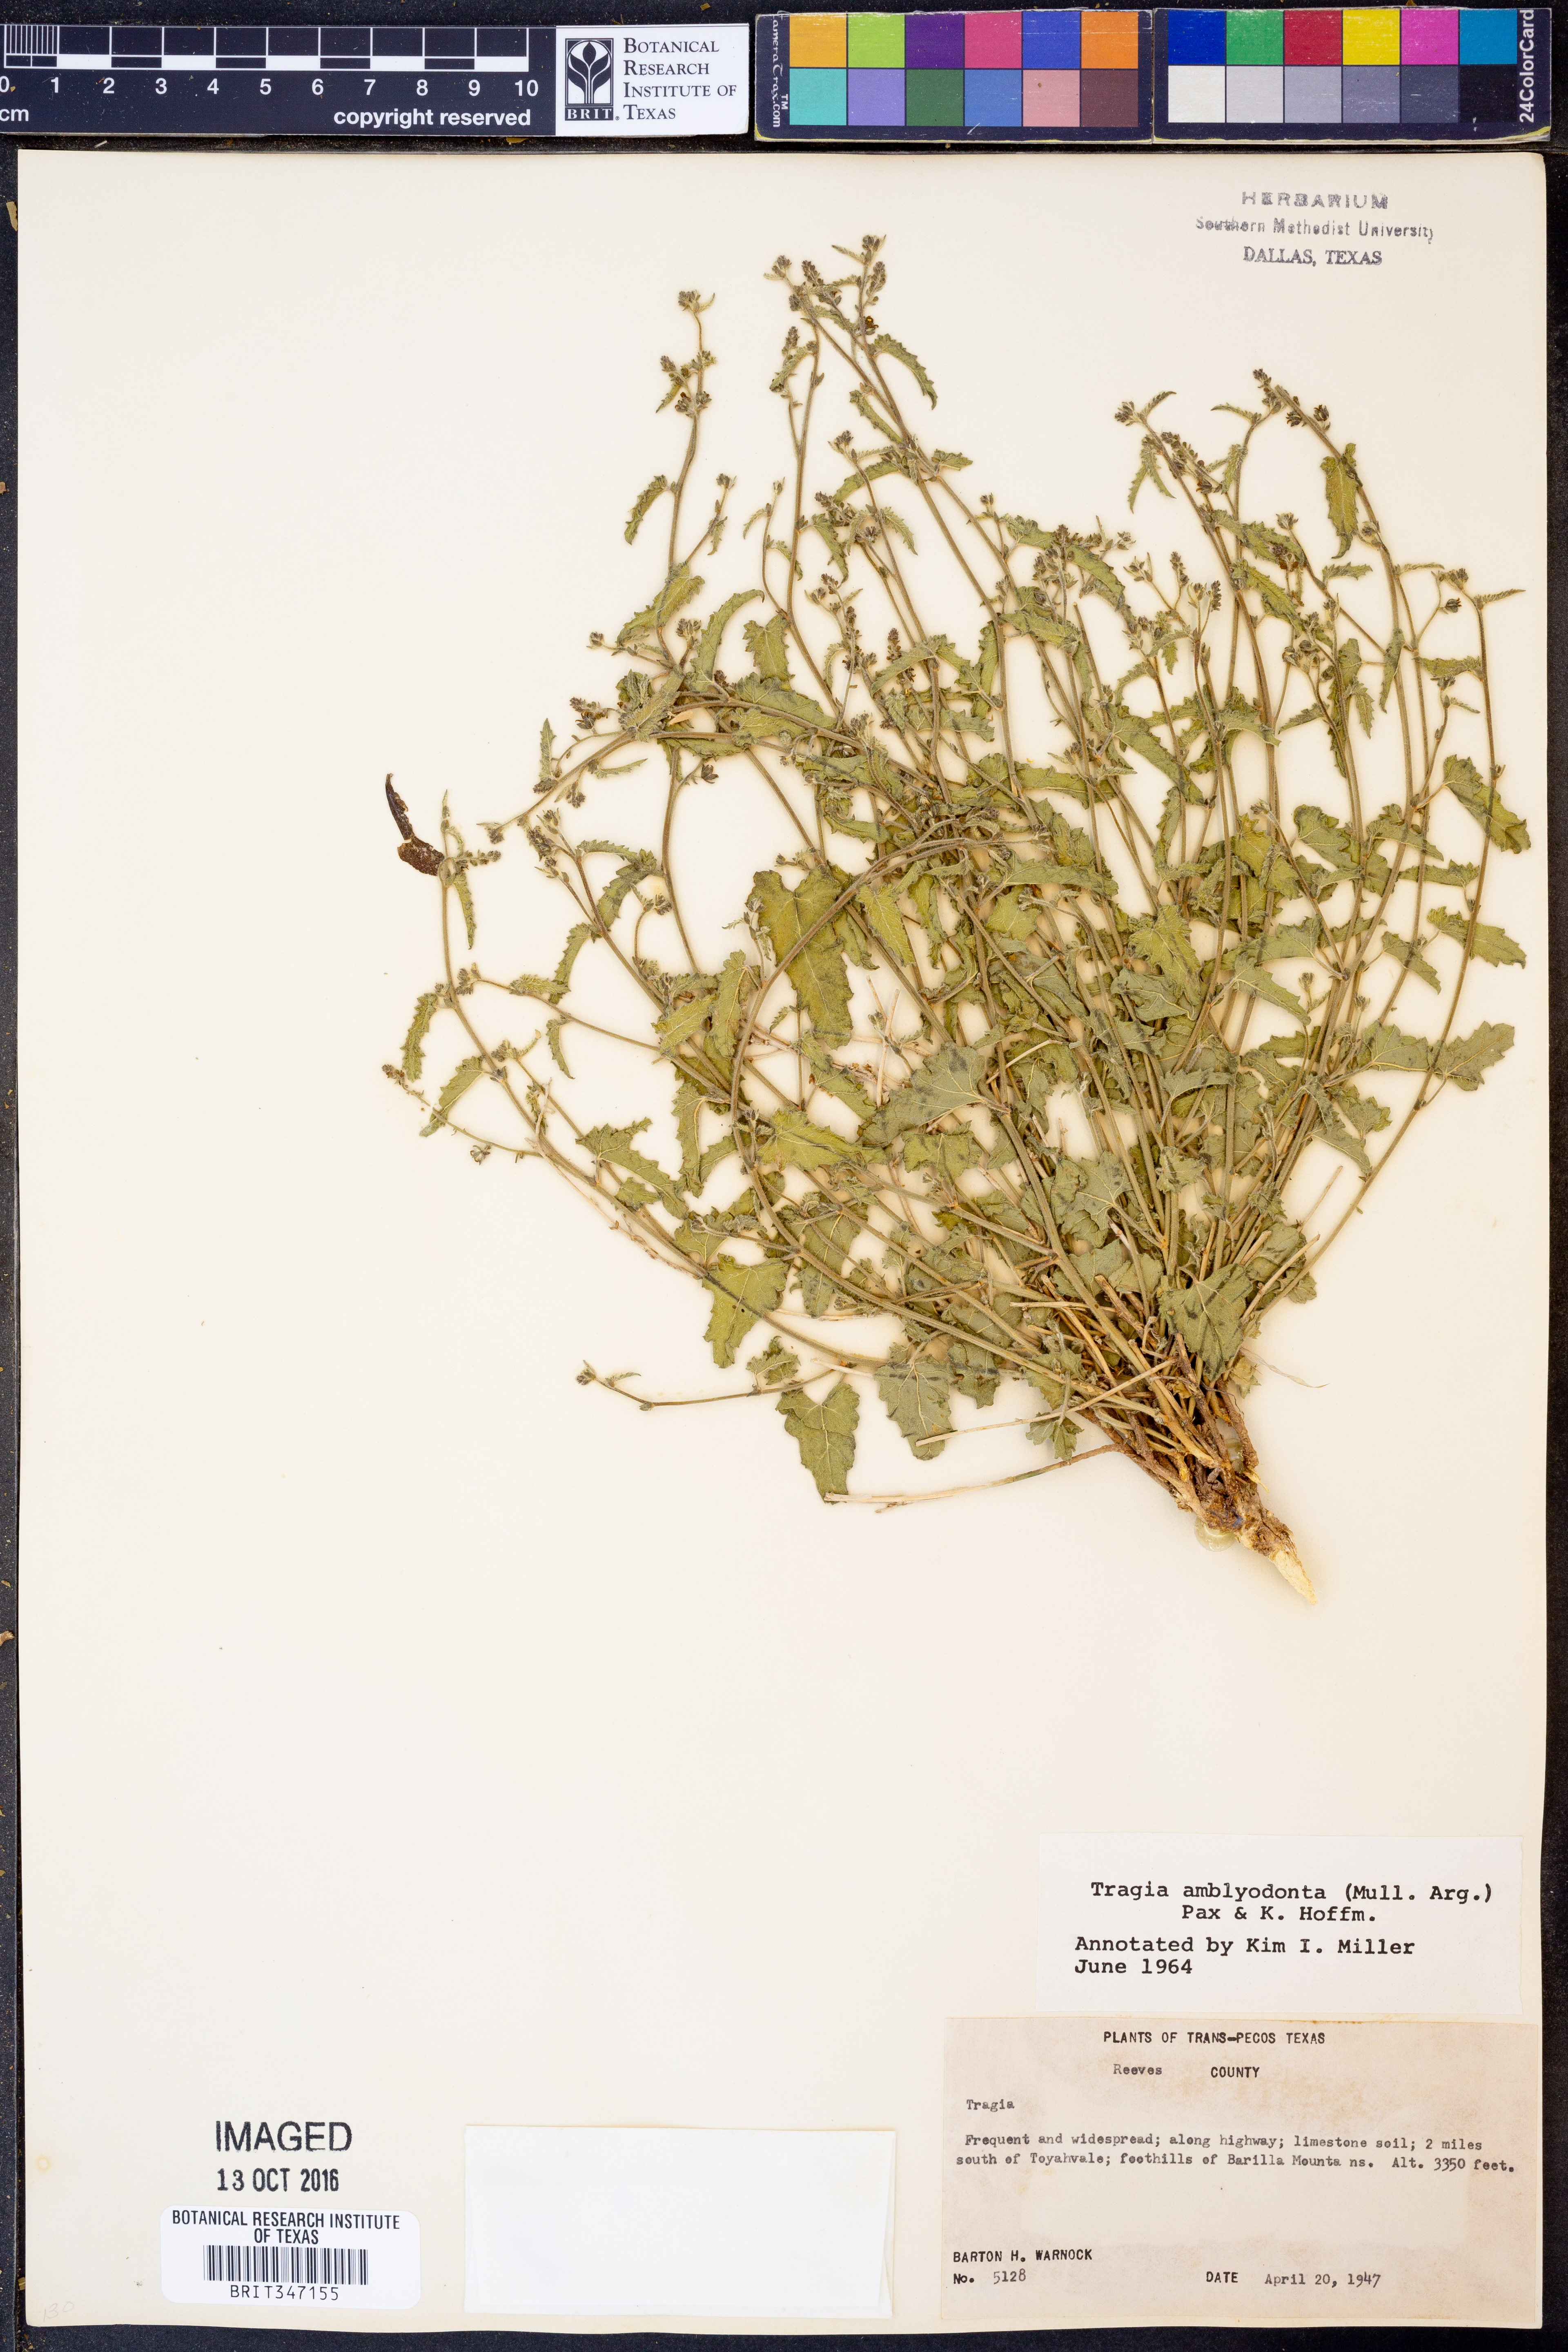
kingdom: Plantae
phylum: Tracheophyta
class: Magnoliopsida
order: Malpighiales
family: Euphorbiaceae
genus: Tragia
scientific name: Tragia amblyodonta
